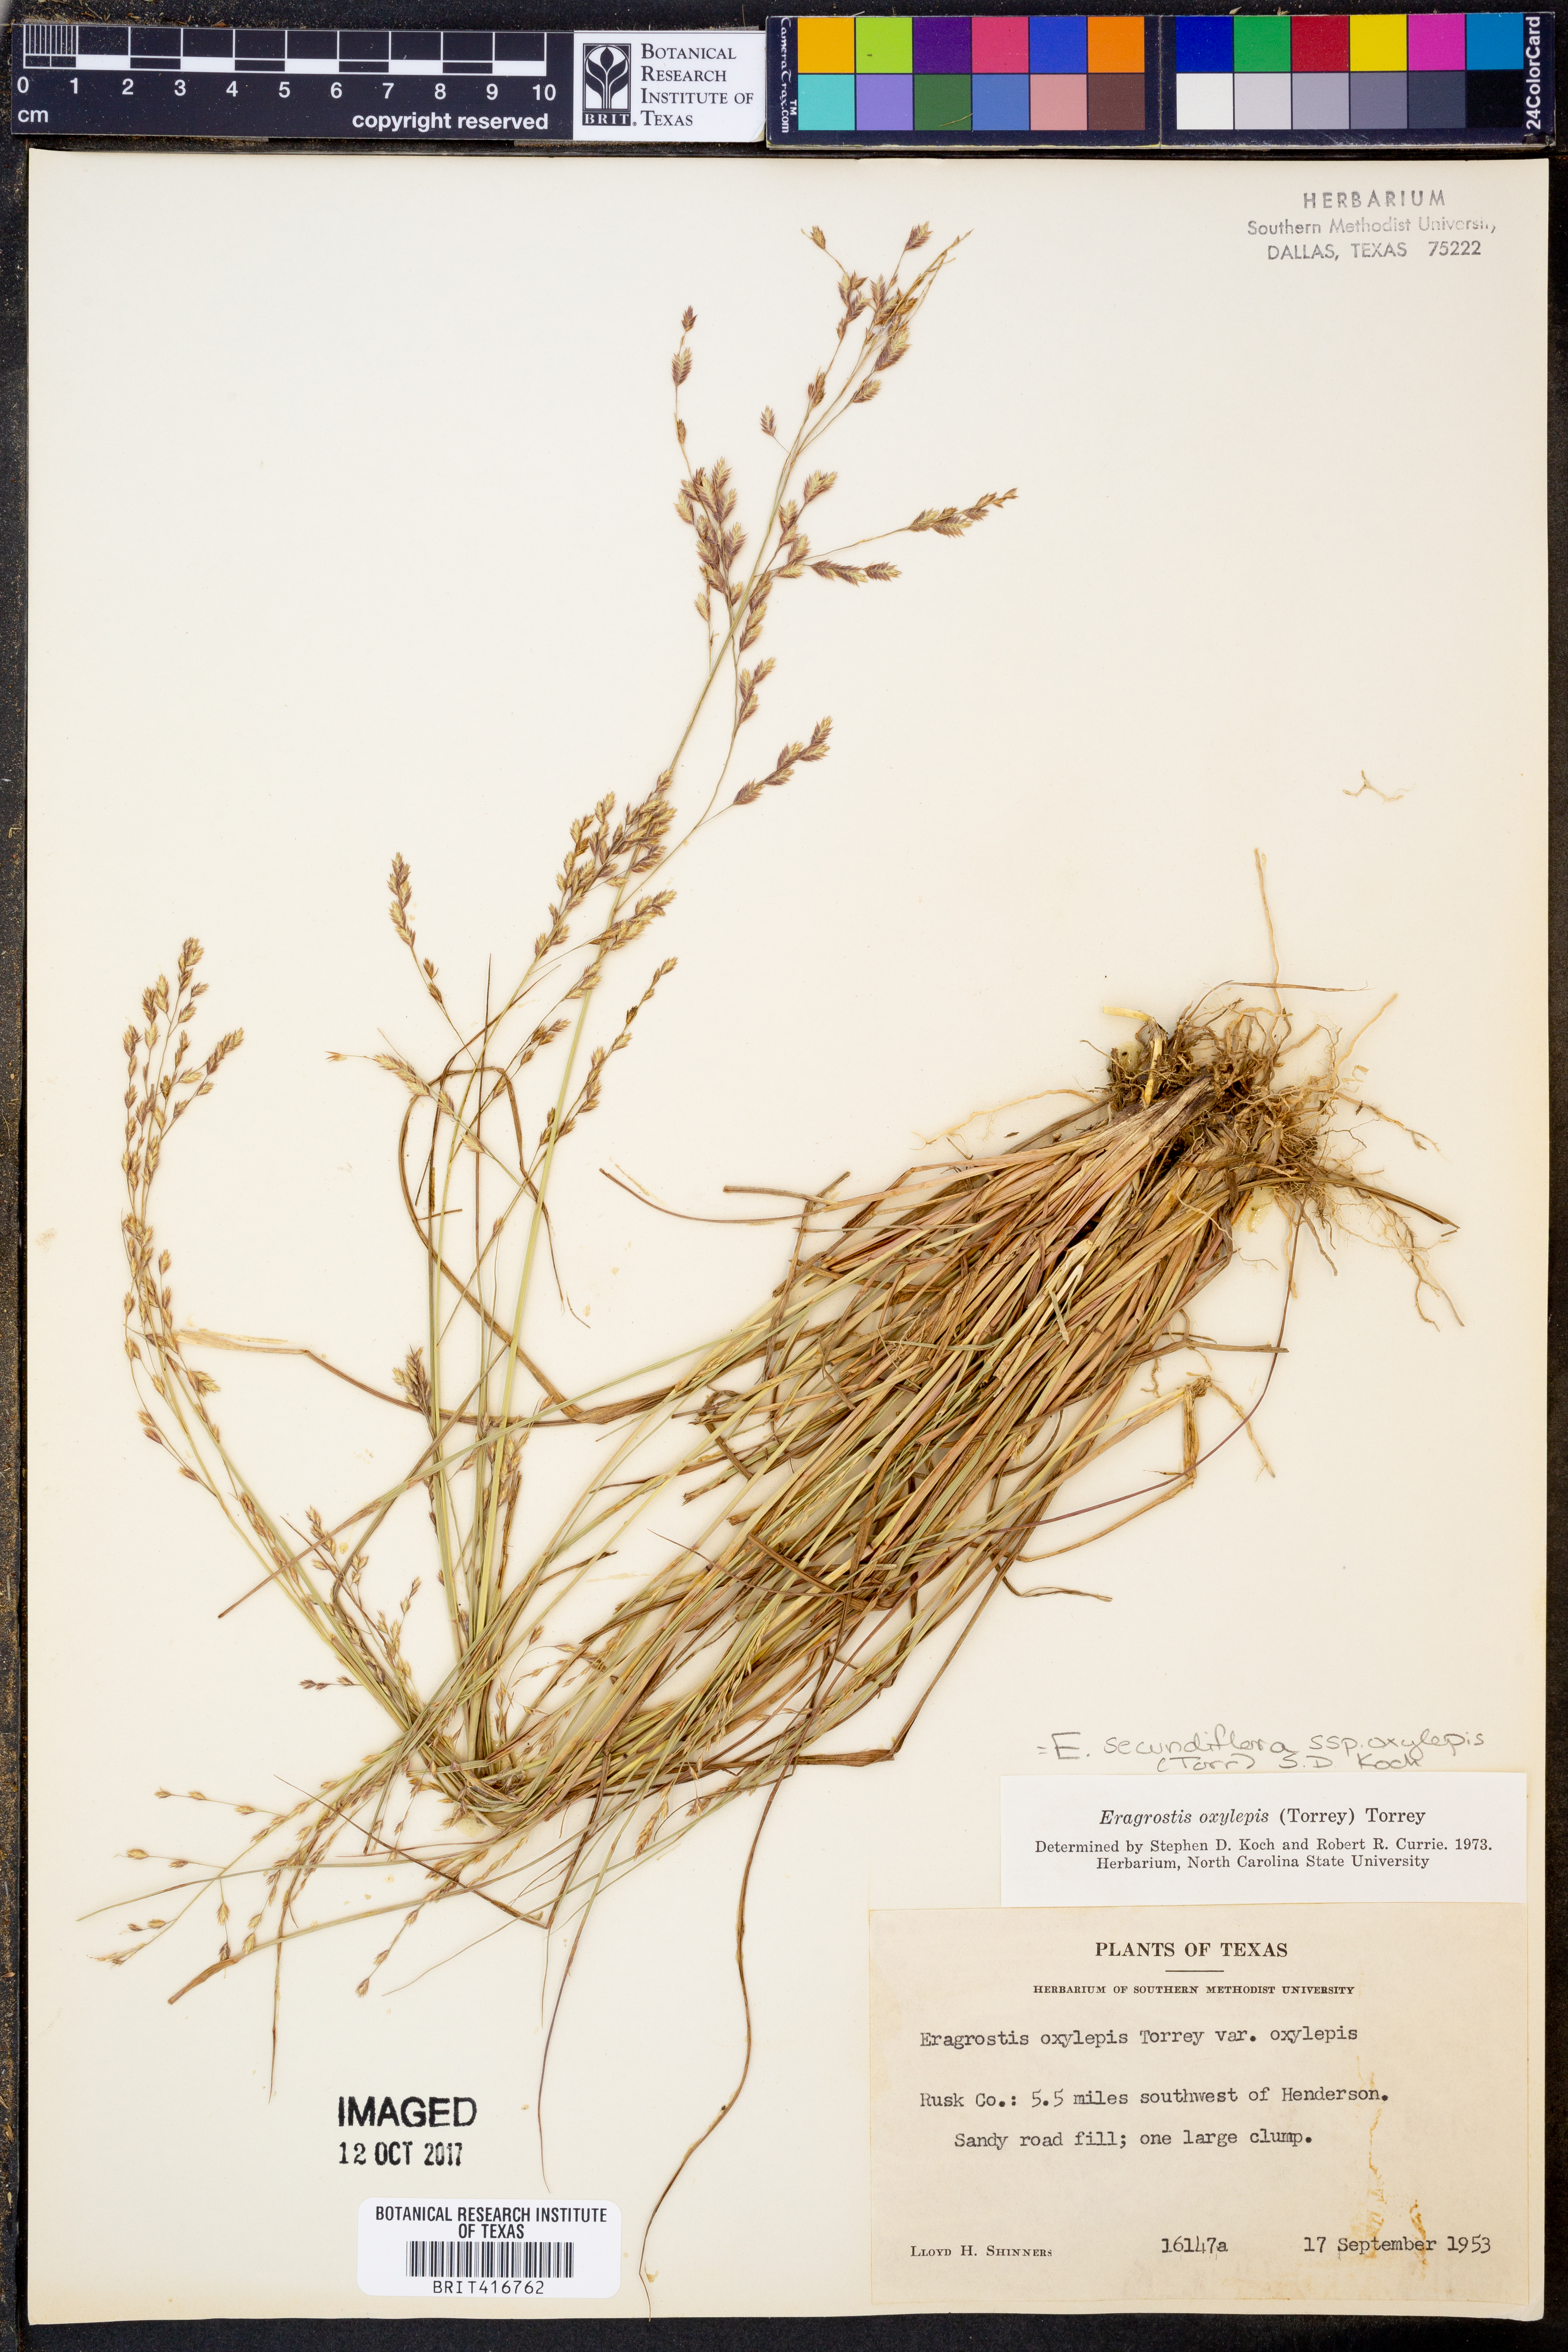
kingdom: Plantae
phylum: Tracheophyta
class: Liliopsida
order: Poales
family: Poaceae
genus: Eragrostis
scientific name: Eragrostis secundiflora
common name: Red love grass
